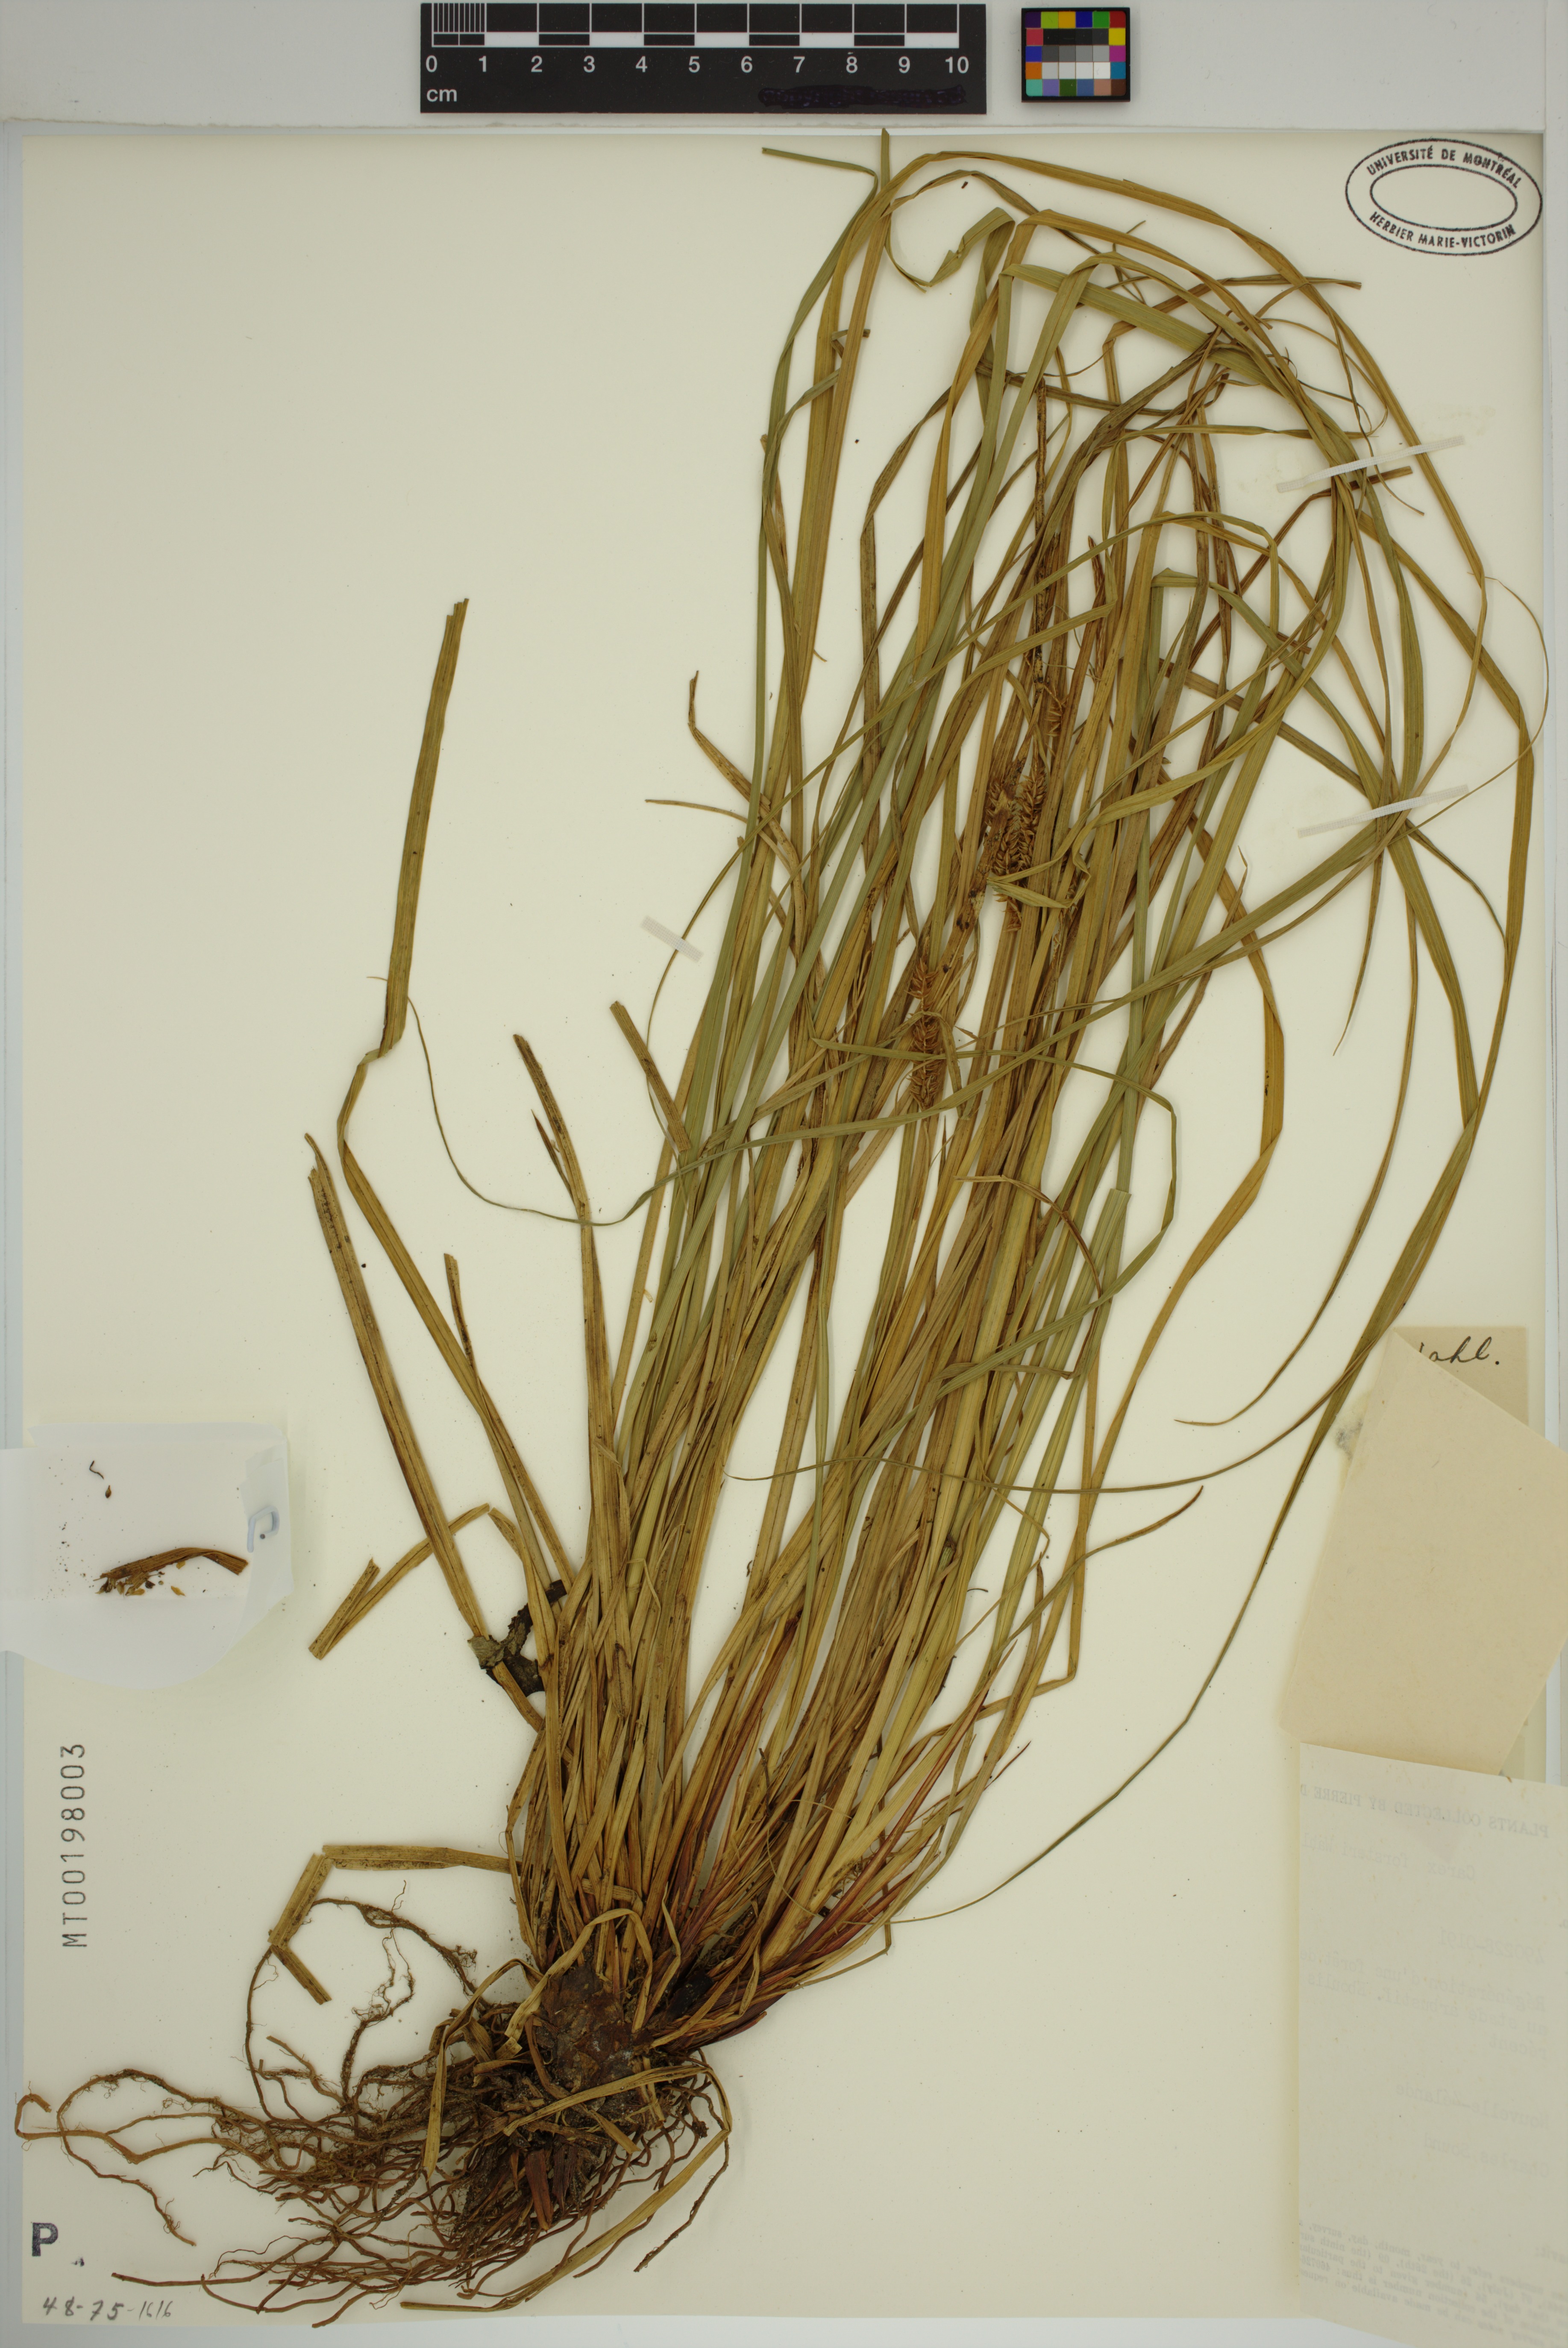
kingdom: Plantae
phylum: Tracheophyta
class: Liliopsida
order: Poales
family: Cyperaceae
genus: Carex
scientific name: Carex forsteri
